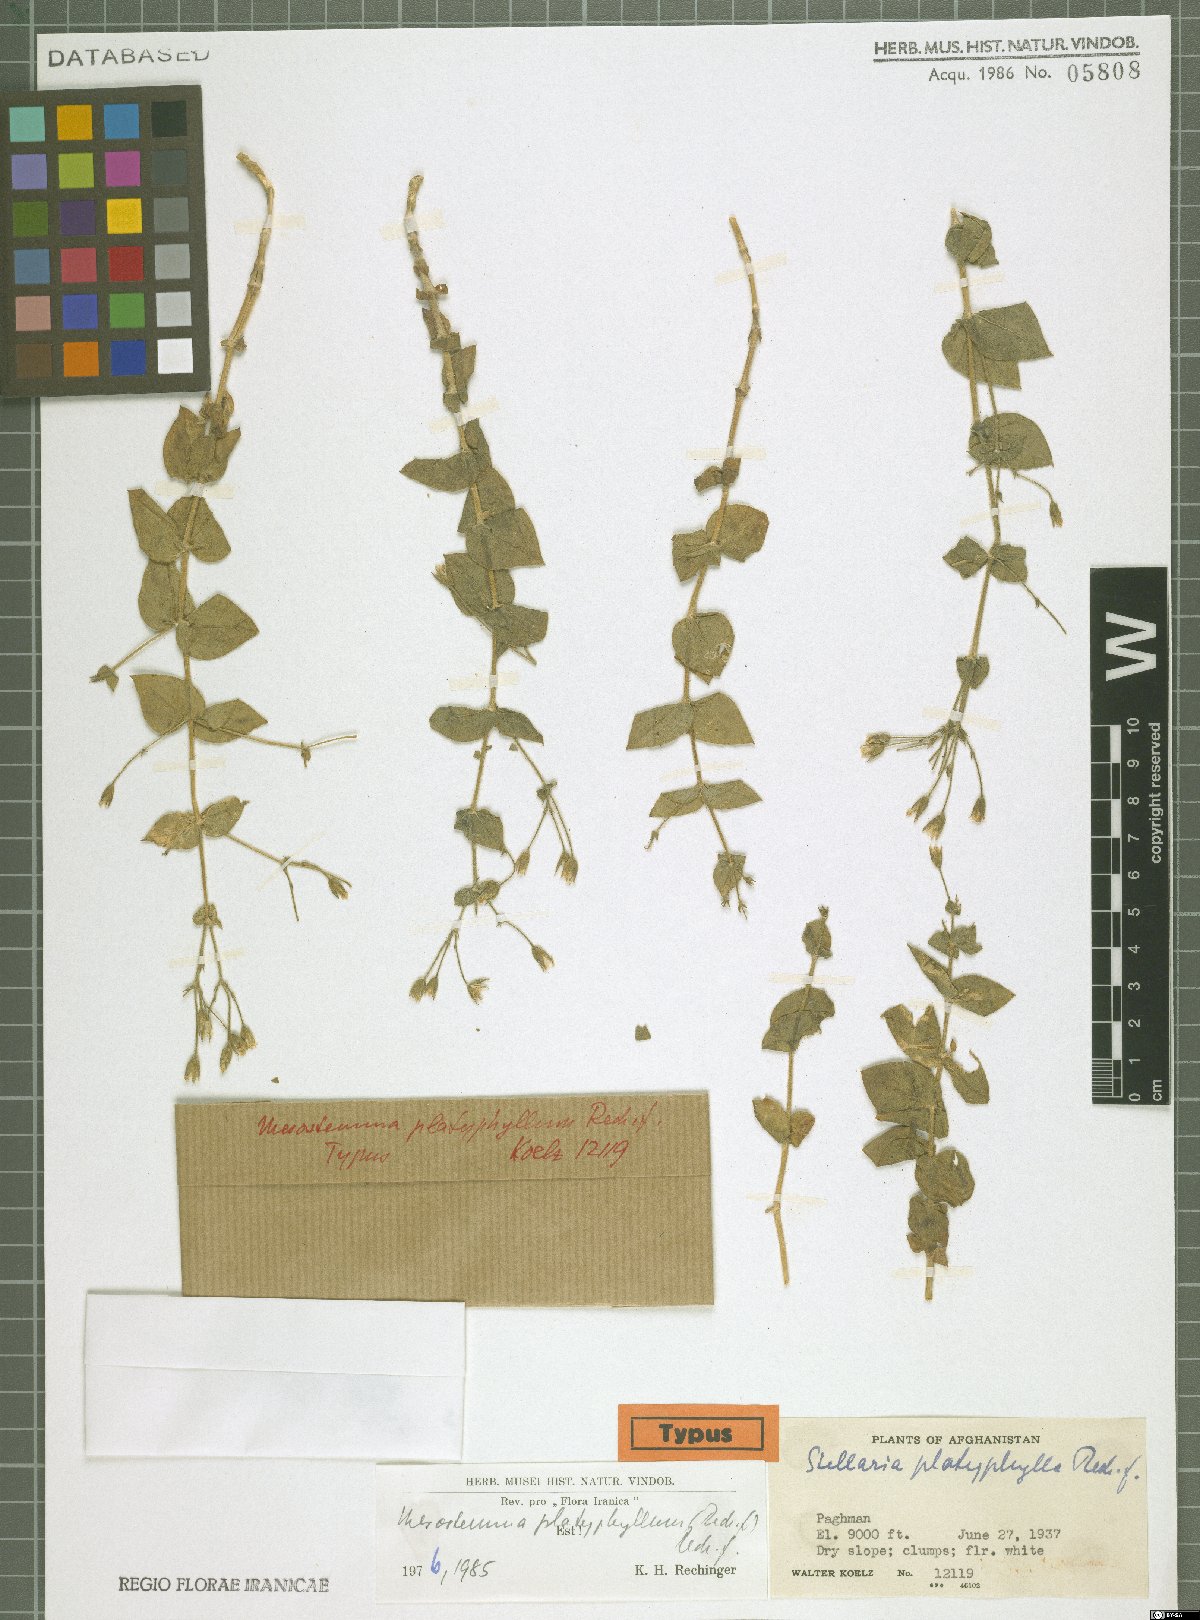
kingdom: Plantae
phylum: Tracheophyta
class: Magnoliopsida
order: Caryophyllales
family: Caryophyllaceae
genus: Mesostemma
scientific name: Mesostemma platyphyllum
